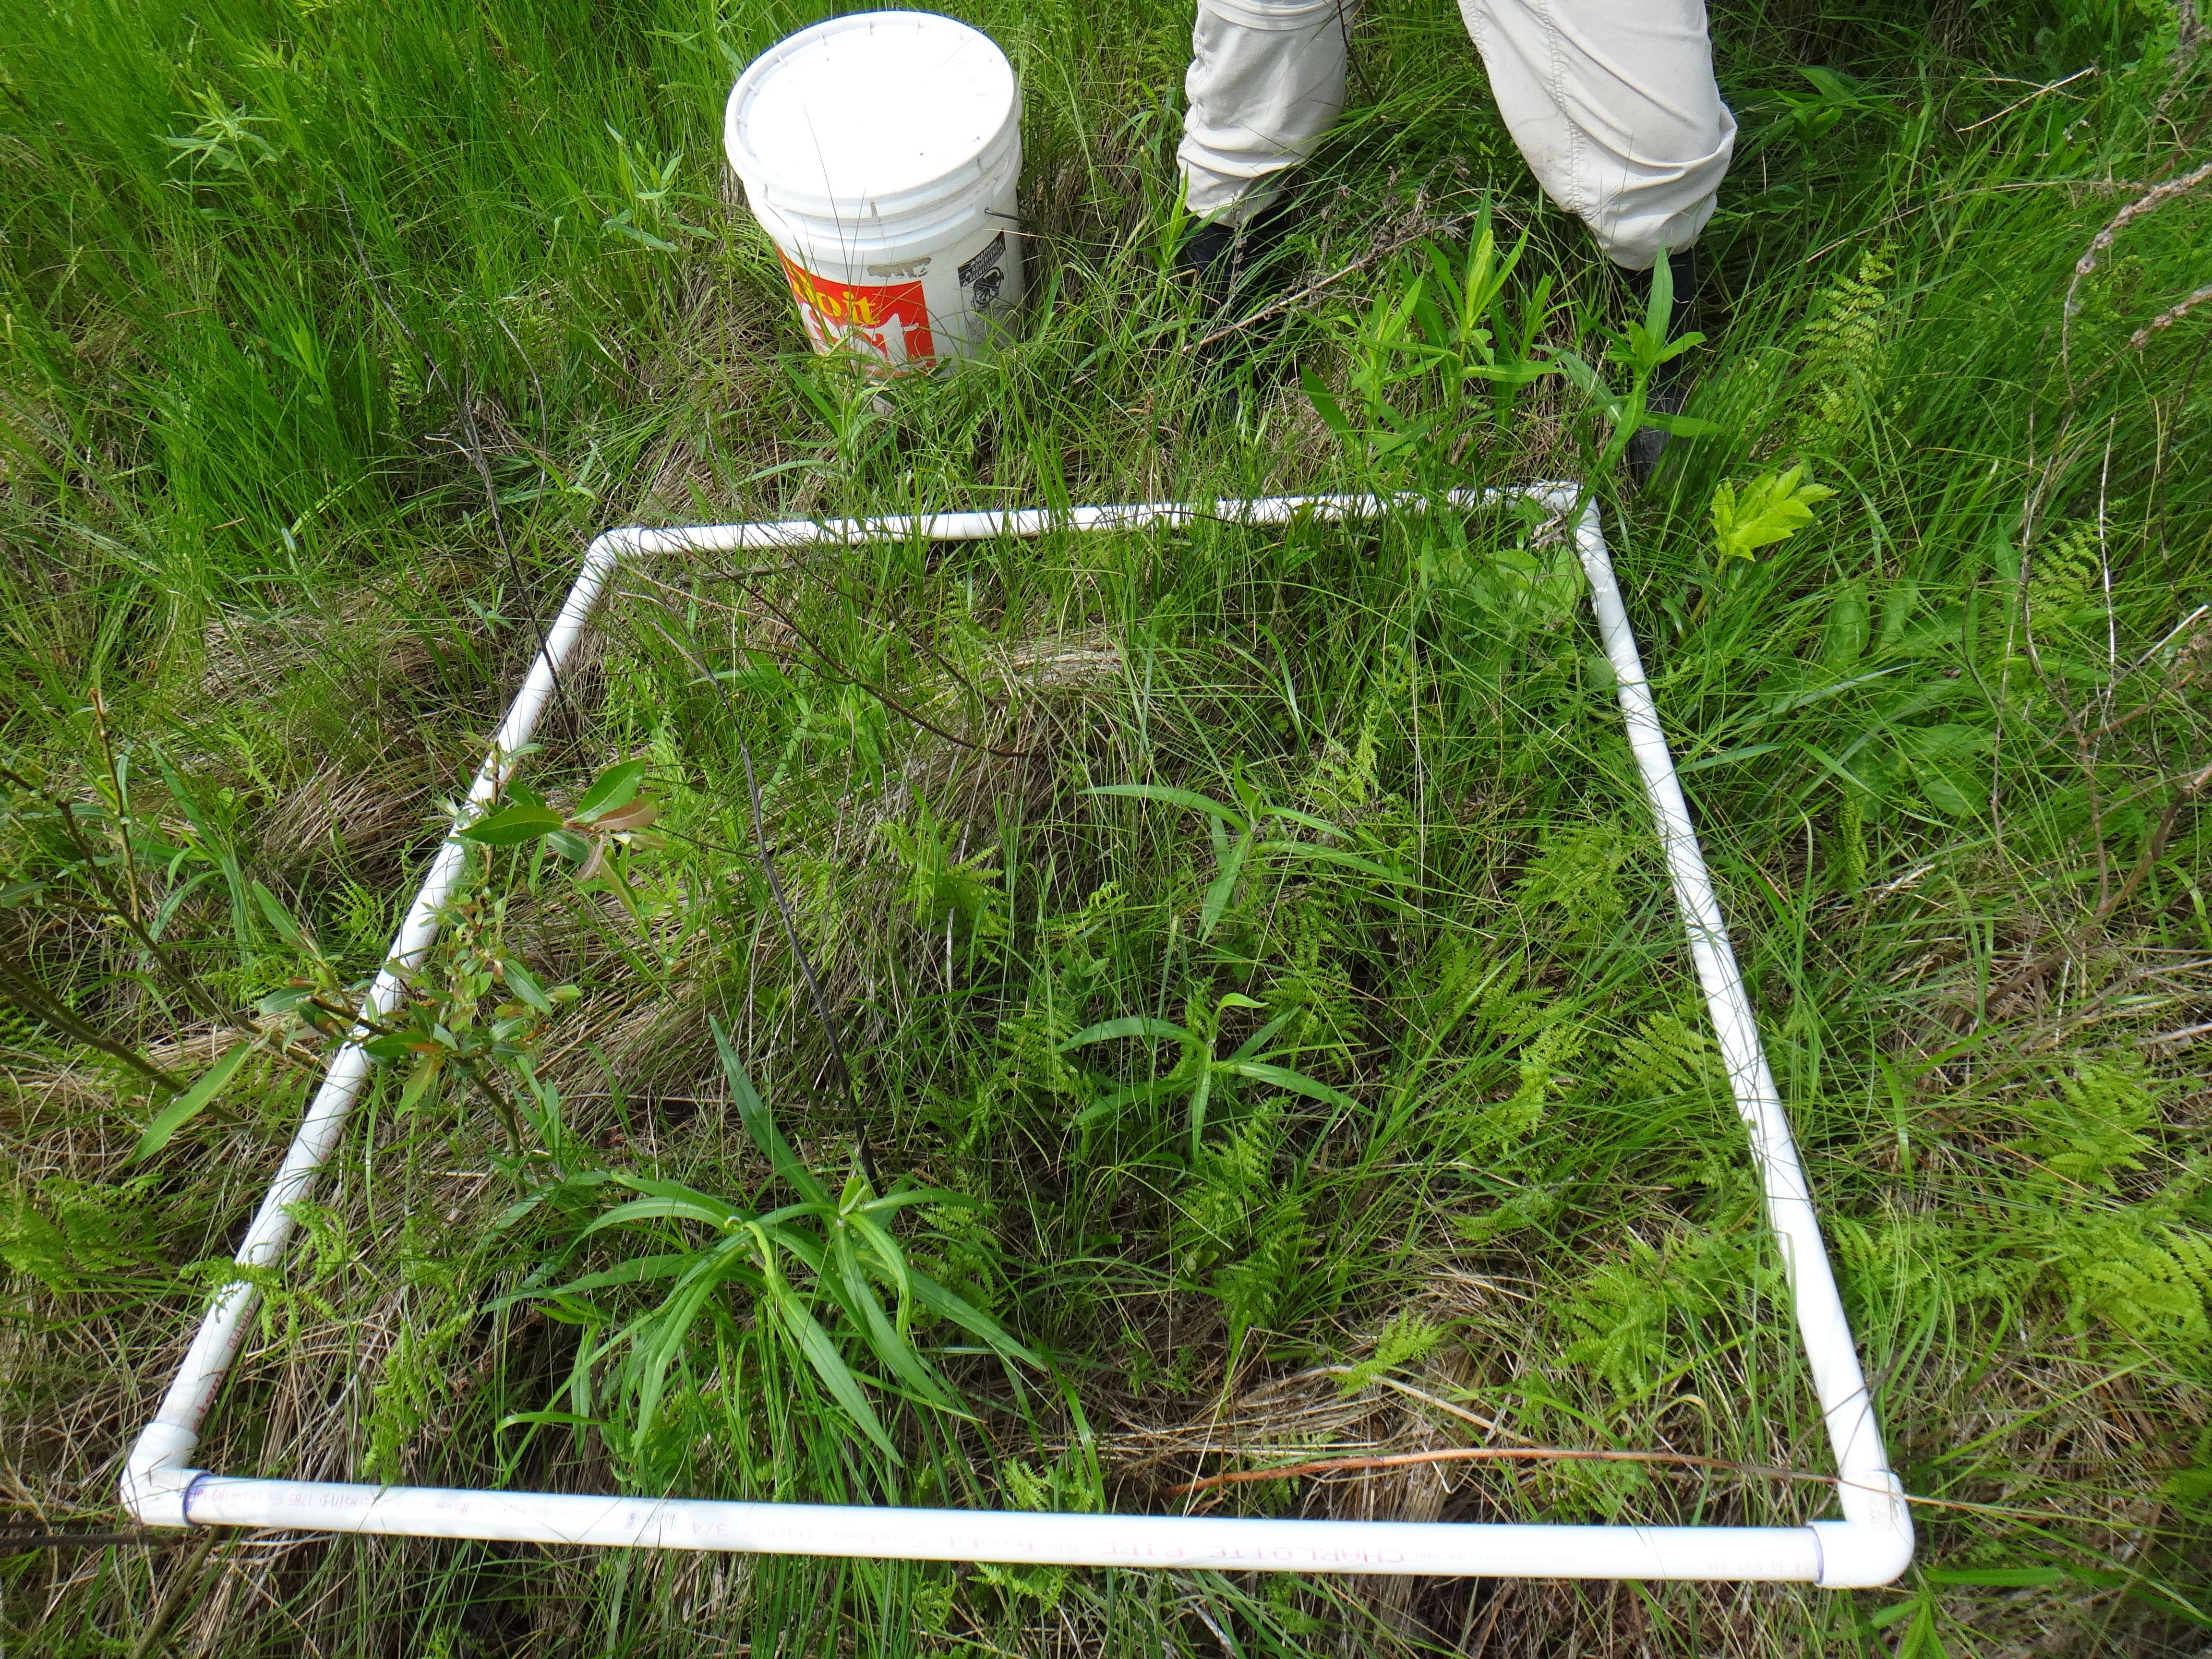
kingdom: Plantae
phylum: Tracheophyta
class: Liliopsida
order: Poales
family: Poaceae
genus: Poa
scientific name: Poa pratensis
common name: Kentucky bluegrass
